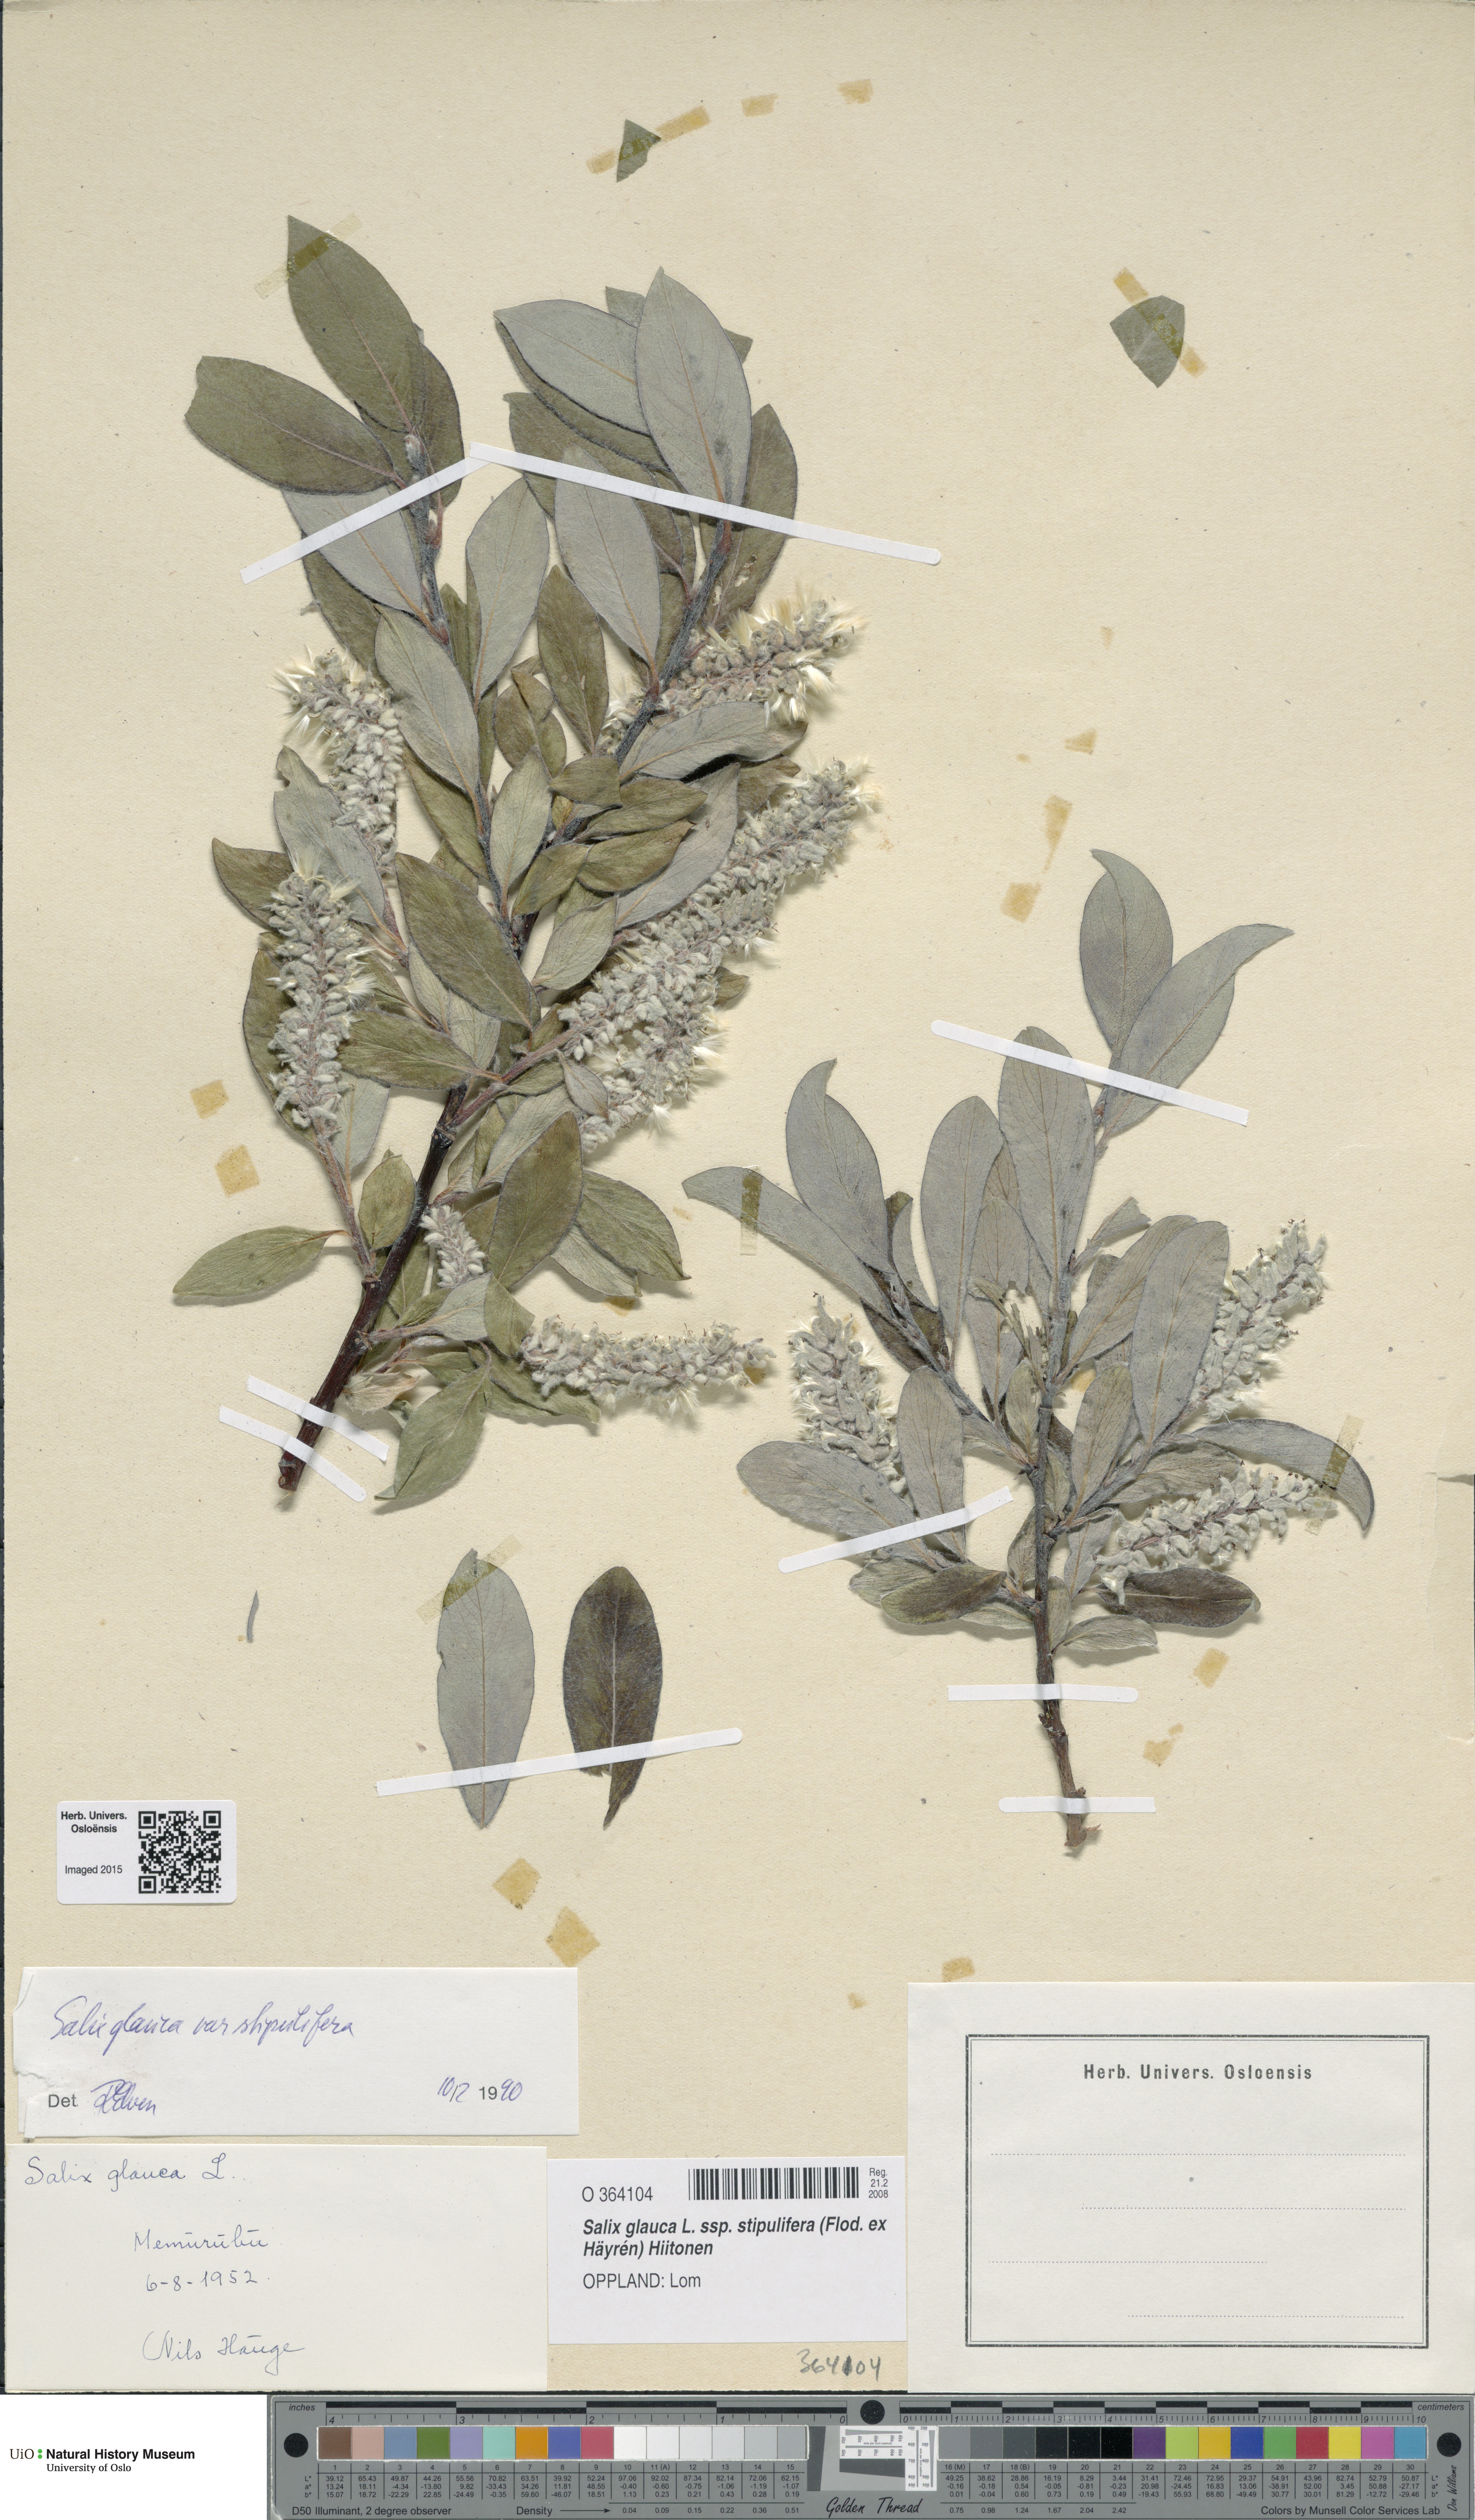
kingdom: Plantae
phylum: Tracheophyta
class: Magnoliopsida
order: Malpighiales
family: Salicaceae
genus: Salix
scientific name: Salix glauca
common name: Glaucous willow
